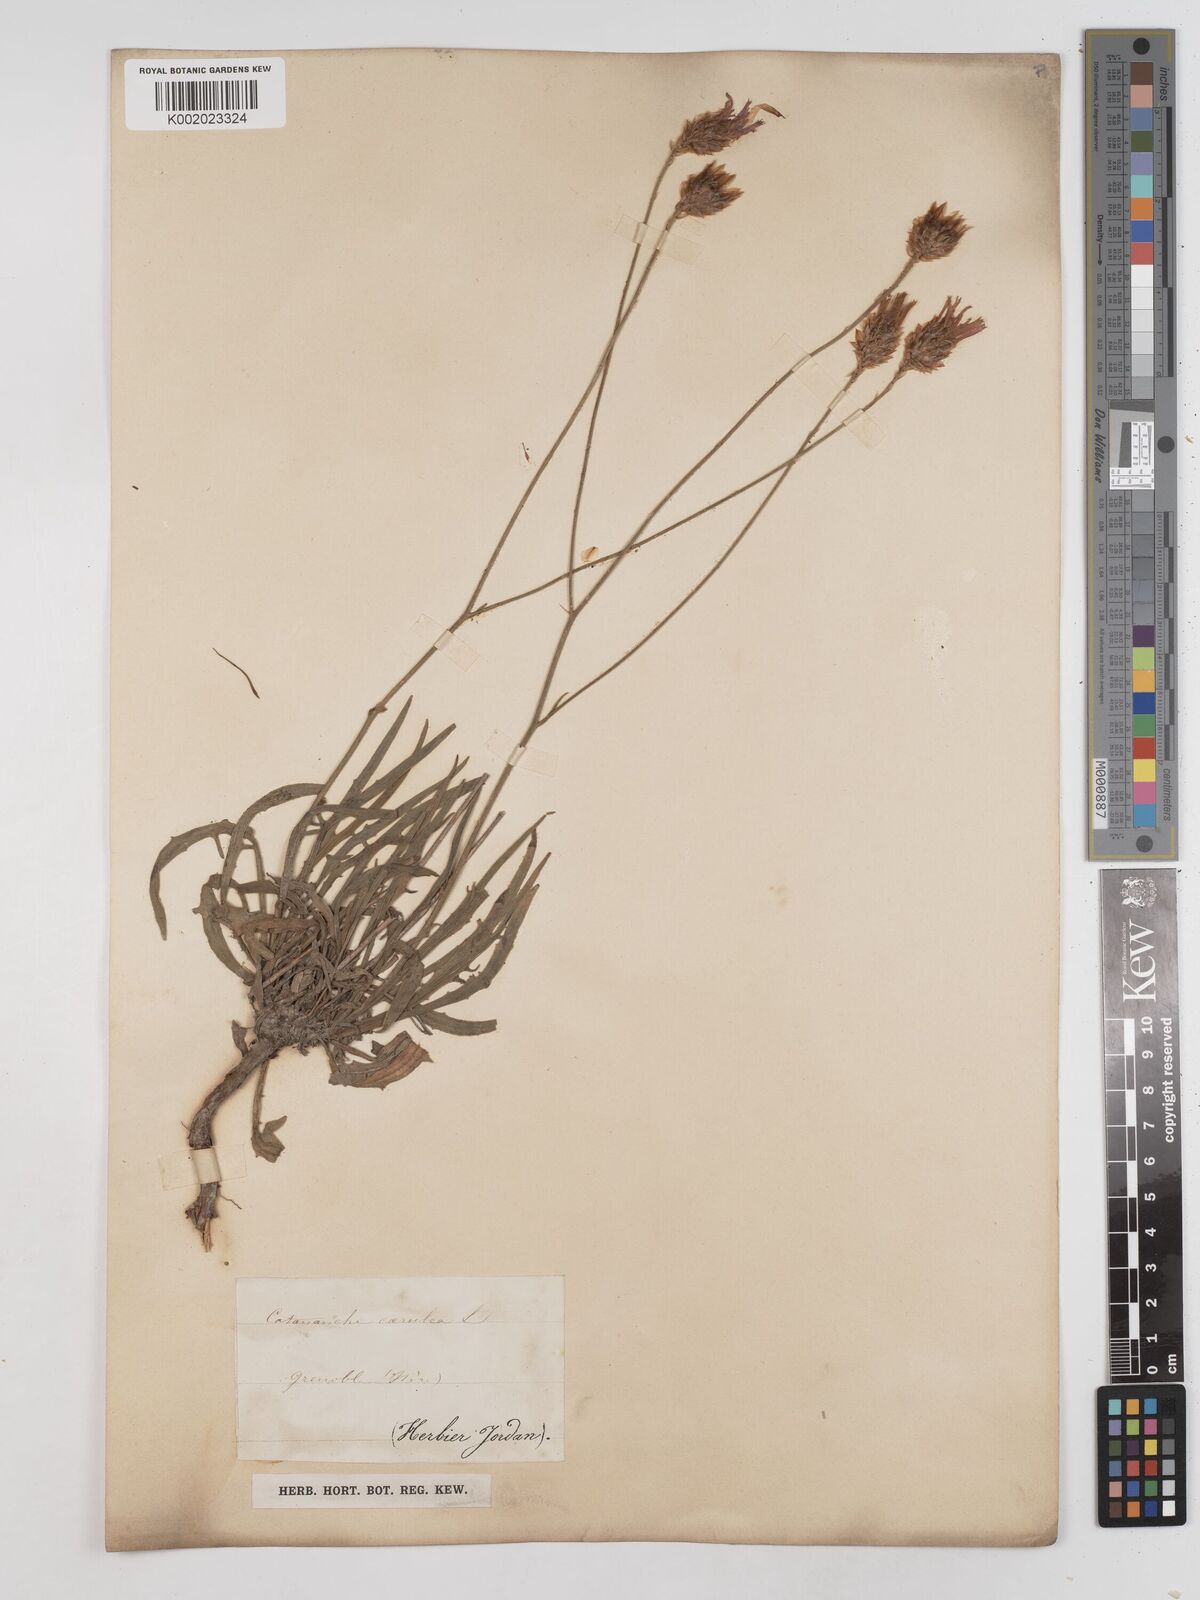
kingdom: Plantae
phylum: Tracheophyta
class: Magnoliopsida
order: Asterales
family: Asteraceae
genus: Catananche
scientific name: Catananche caerulea
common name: Blue cupidone
